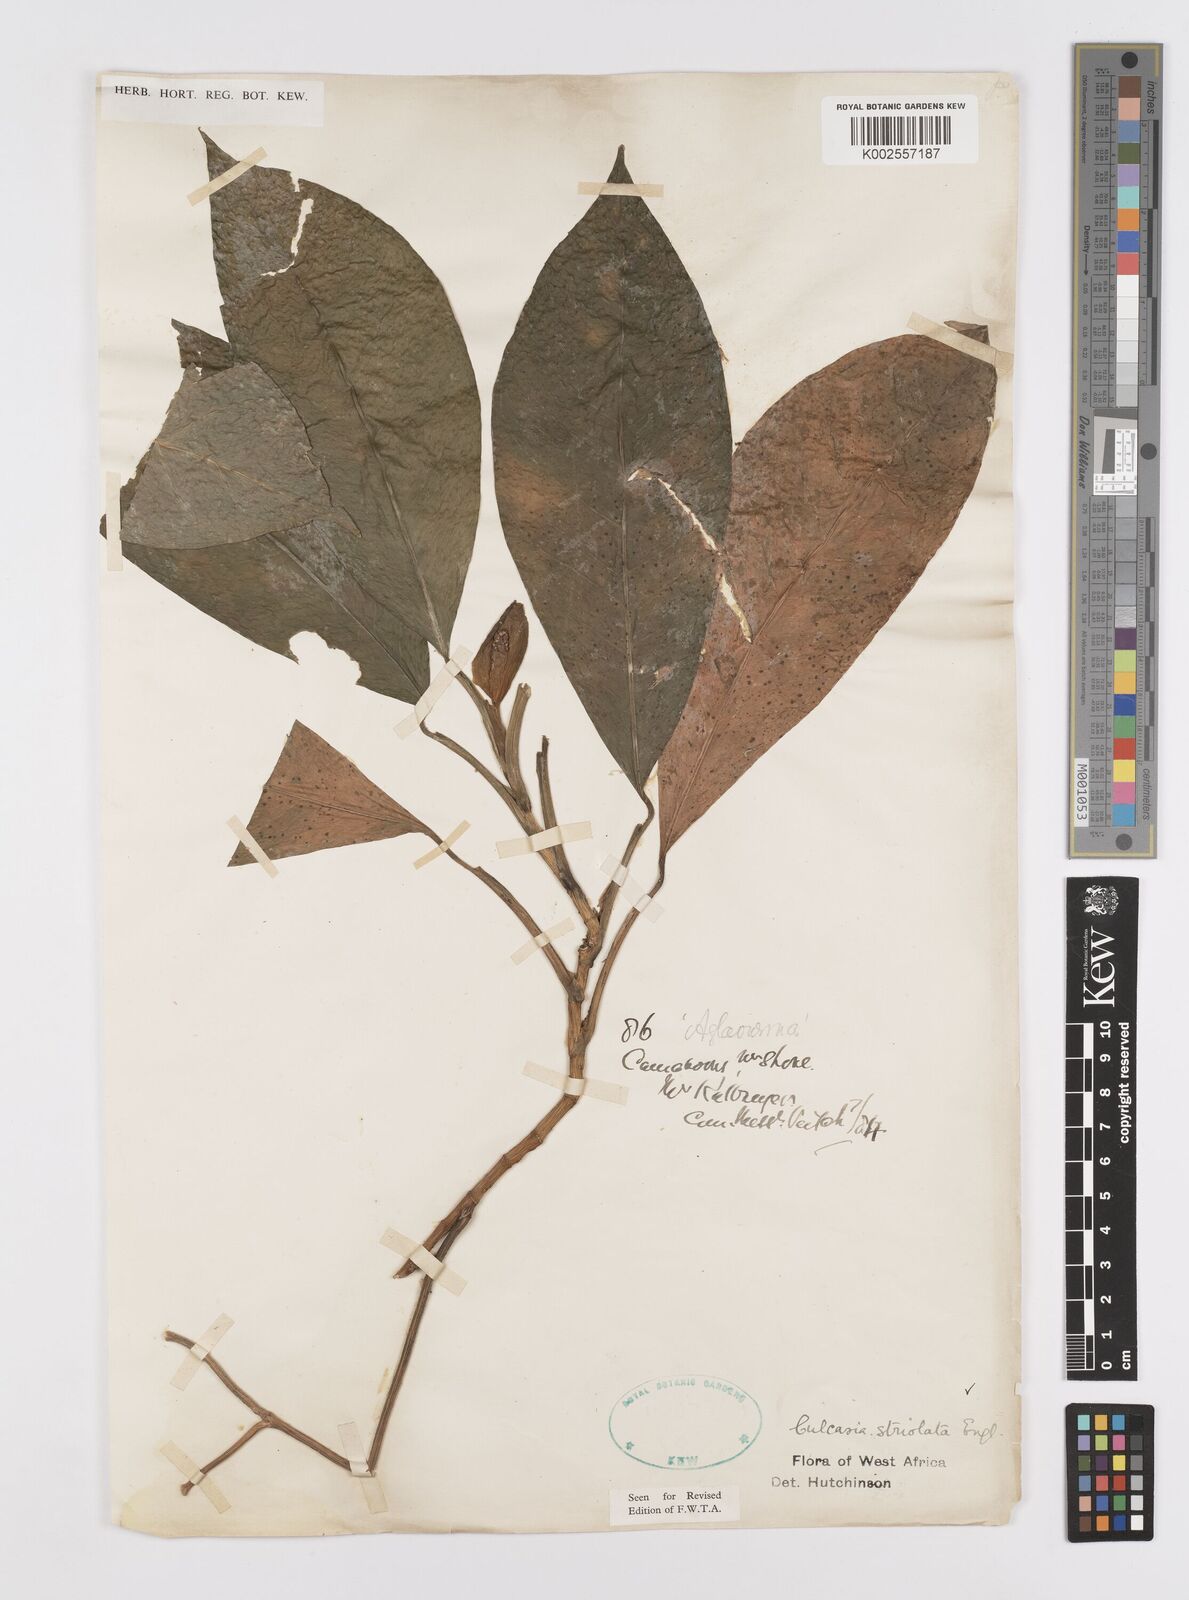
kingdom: Plantae
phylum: Tracheophyta
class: Liliopsida
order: Alismatales
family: Araceae
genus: Culcasia
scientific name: Culcasia striolata
